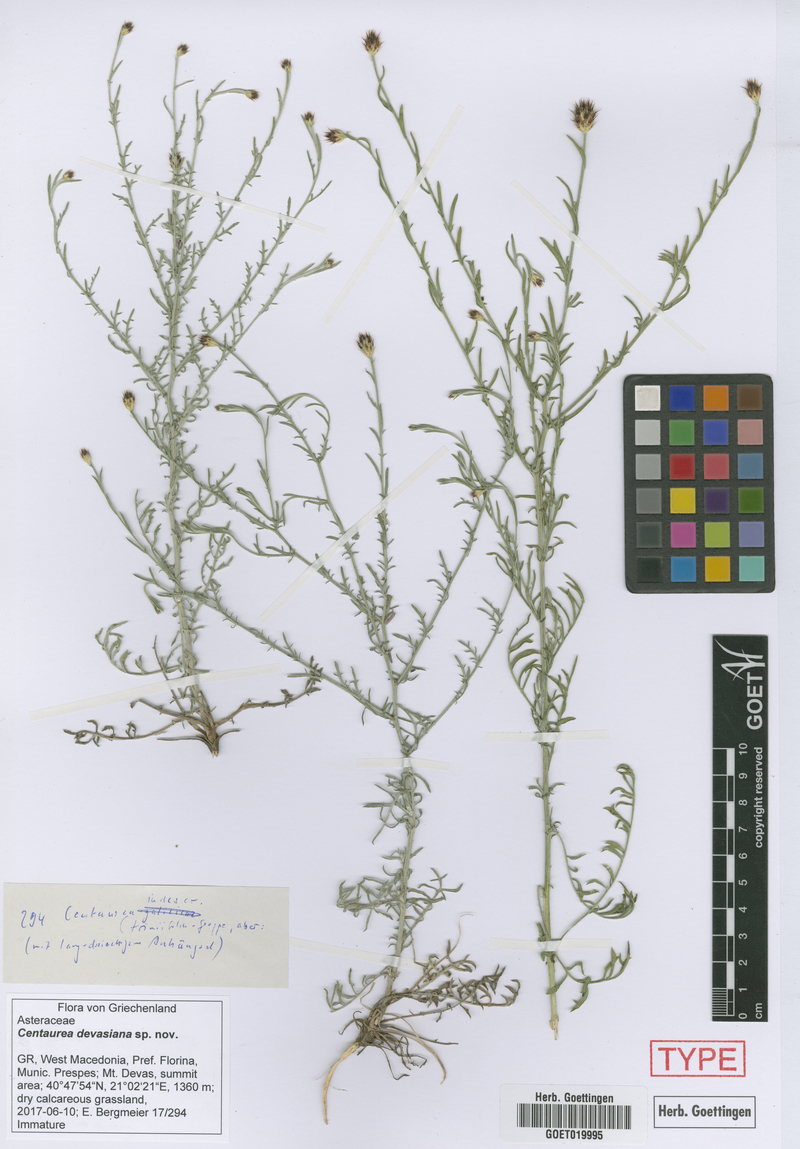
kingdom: Plantae
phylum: Tracheophyta
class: Magnoliopsida
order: Asterales
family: Asteraceae
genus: Centaurea
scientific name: Centaurea devasiana
